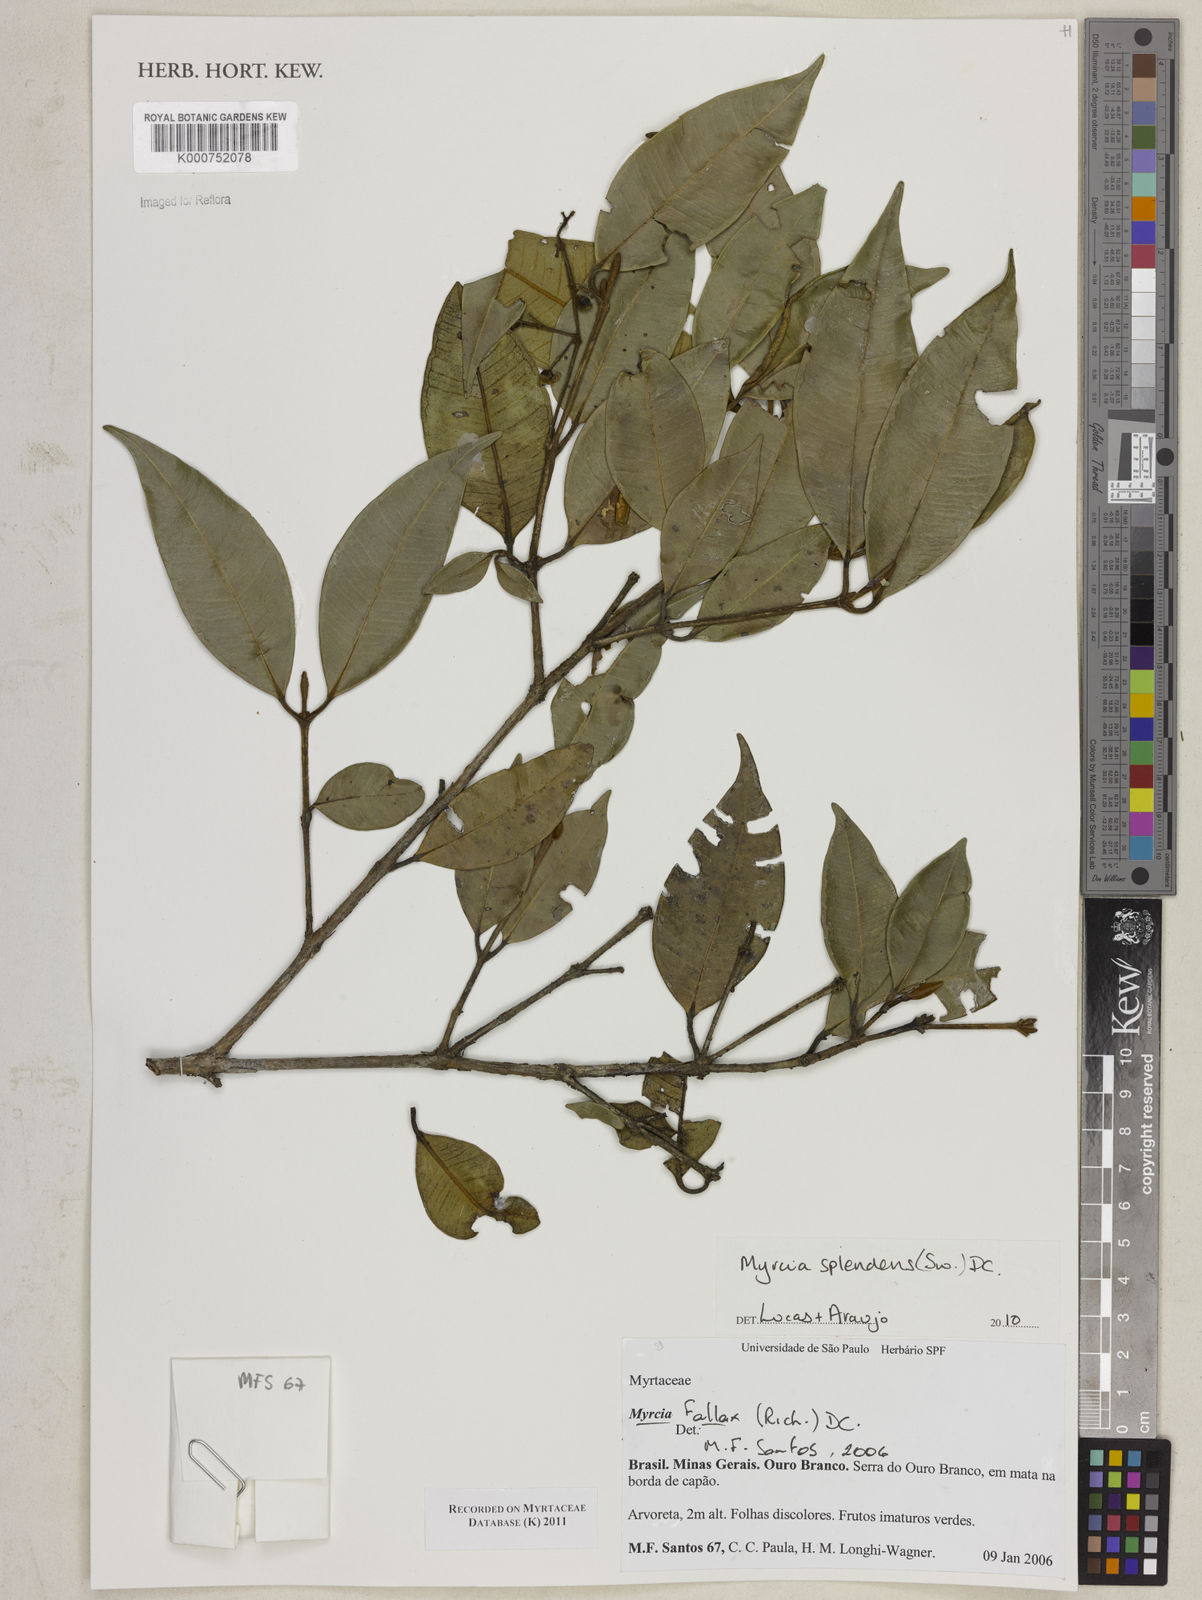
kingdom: Plantae
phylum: Tracheophyta
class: Magnoliopsida
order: Myrtales
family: Myrtaceae
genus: Myrcia
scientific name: Myrcia splendens
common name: Surinam cherry
